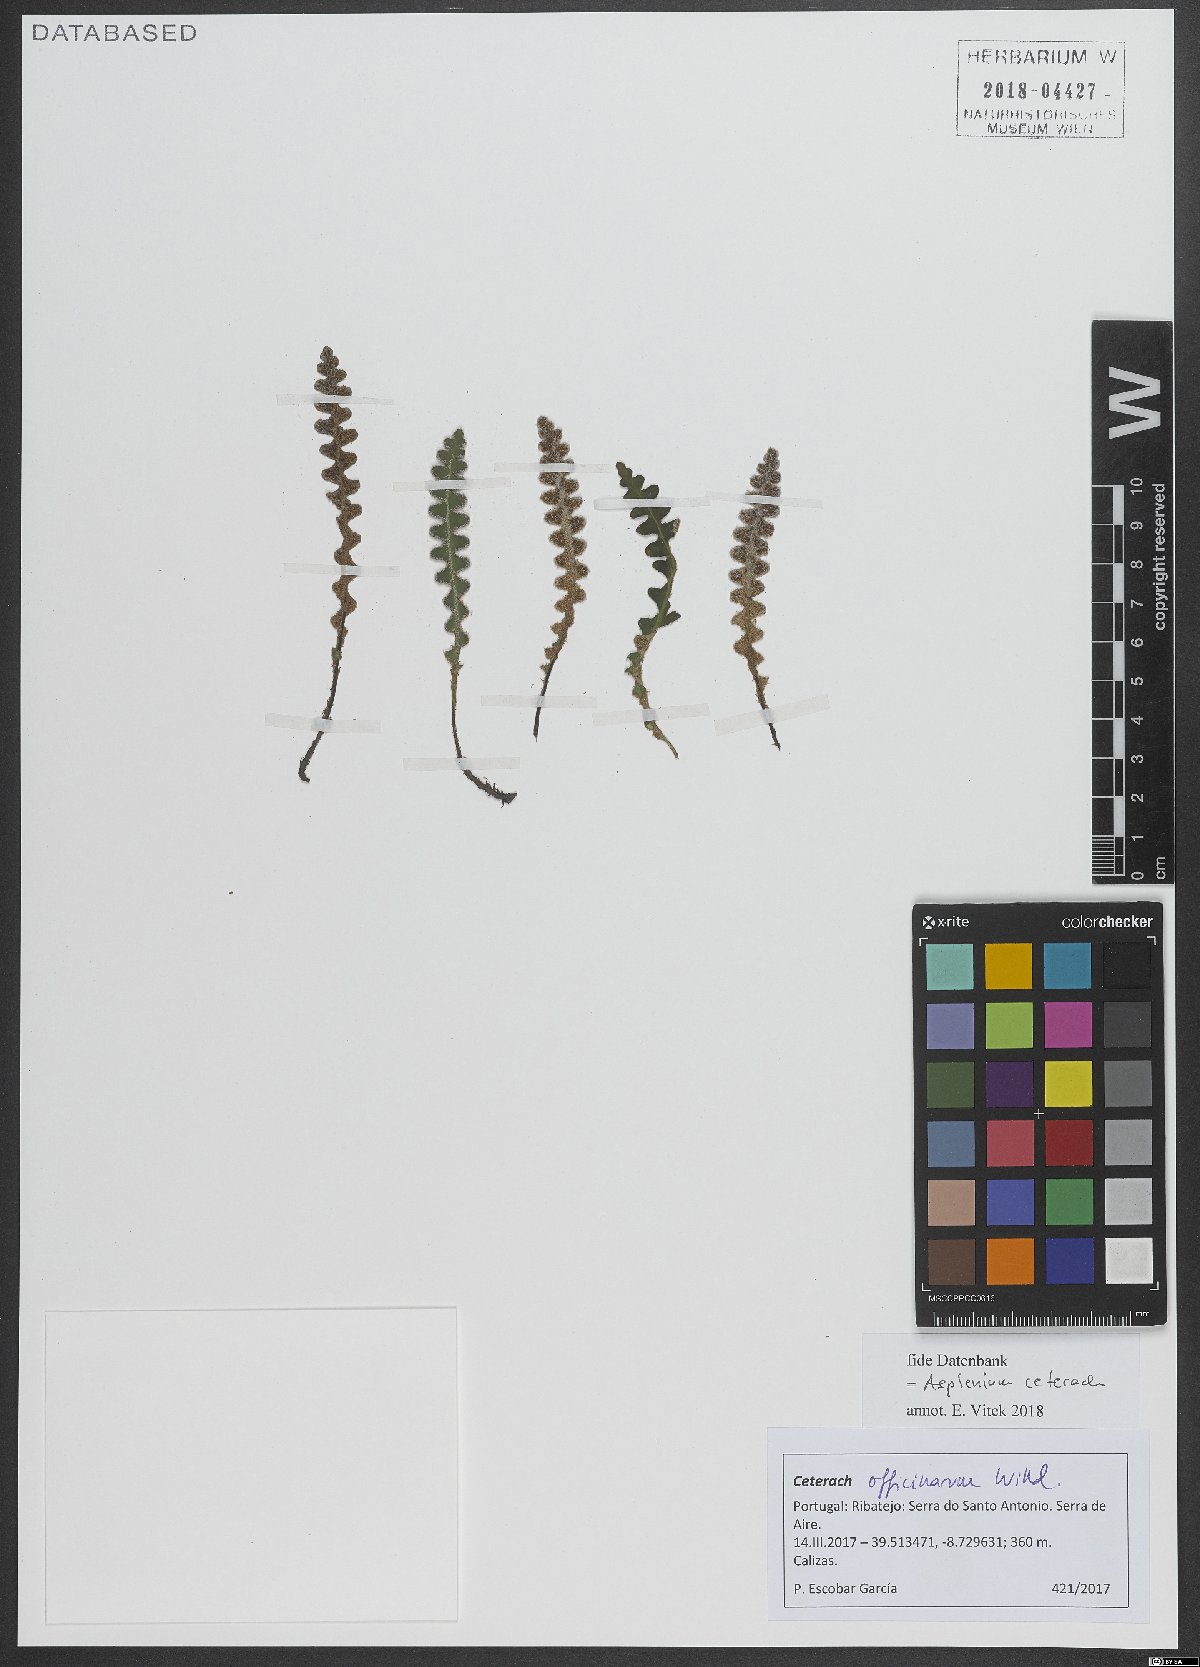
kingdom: Plantae
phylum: Tracheophyta
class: Polypodiopsida
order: Polypodiales
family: Aspleniaceae
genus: Asplenium
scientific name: Asplenium ceterach
